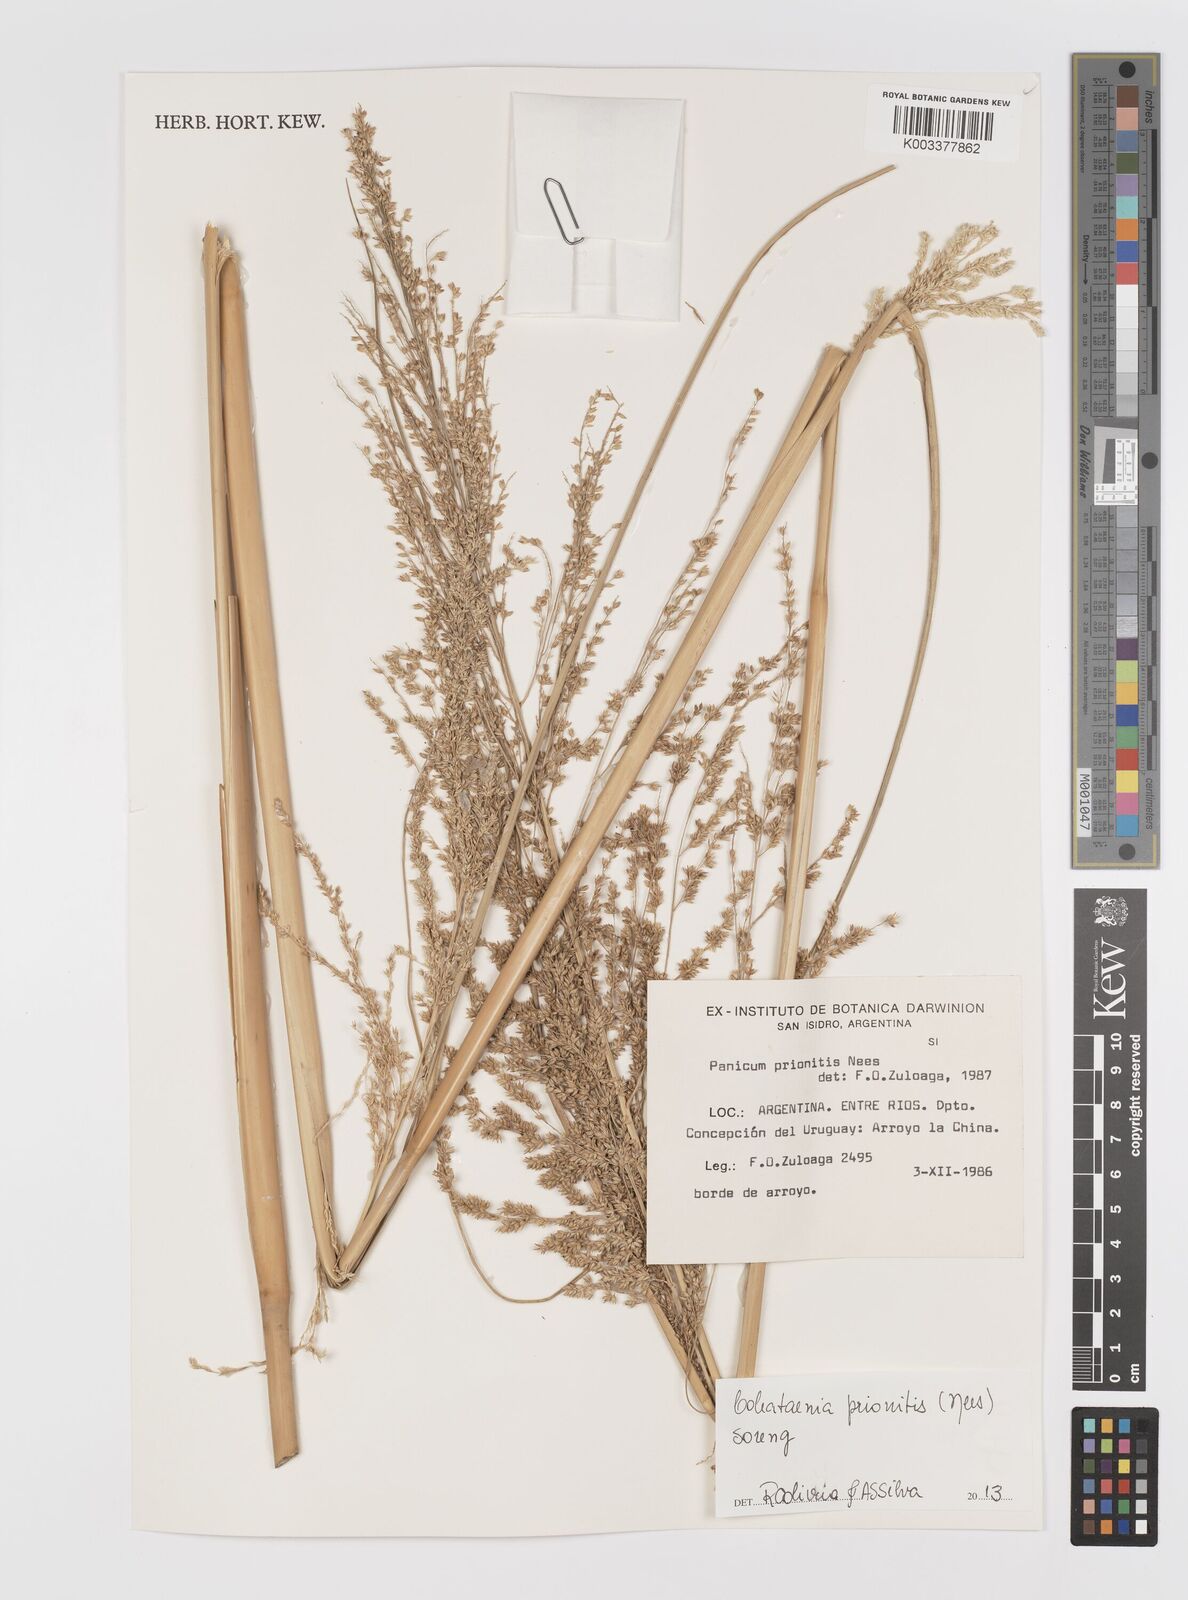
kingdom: Plantae
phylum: Tracheophyta
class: Liliopsida
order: Poales
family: Poaceae
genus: Coleataenia
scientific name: Coleataenia prionitis
